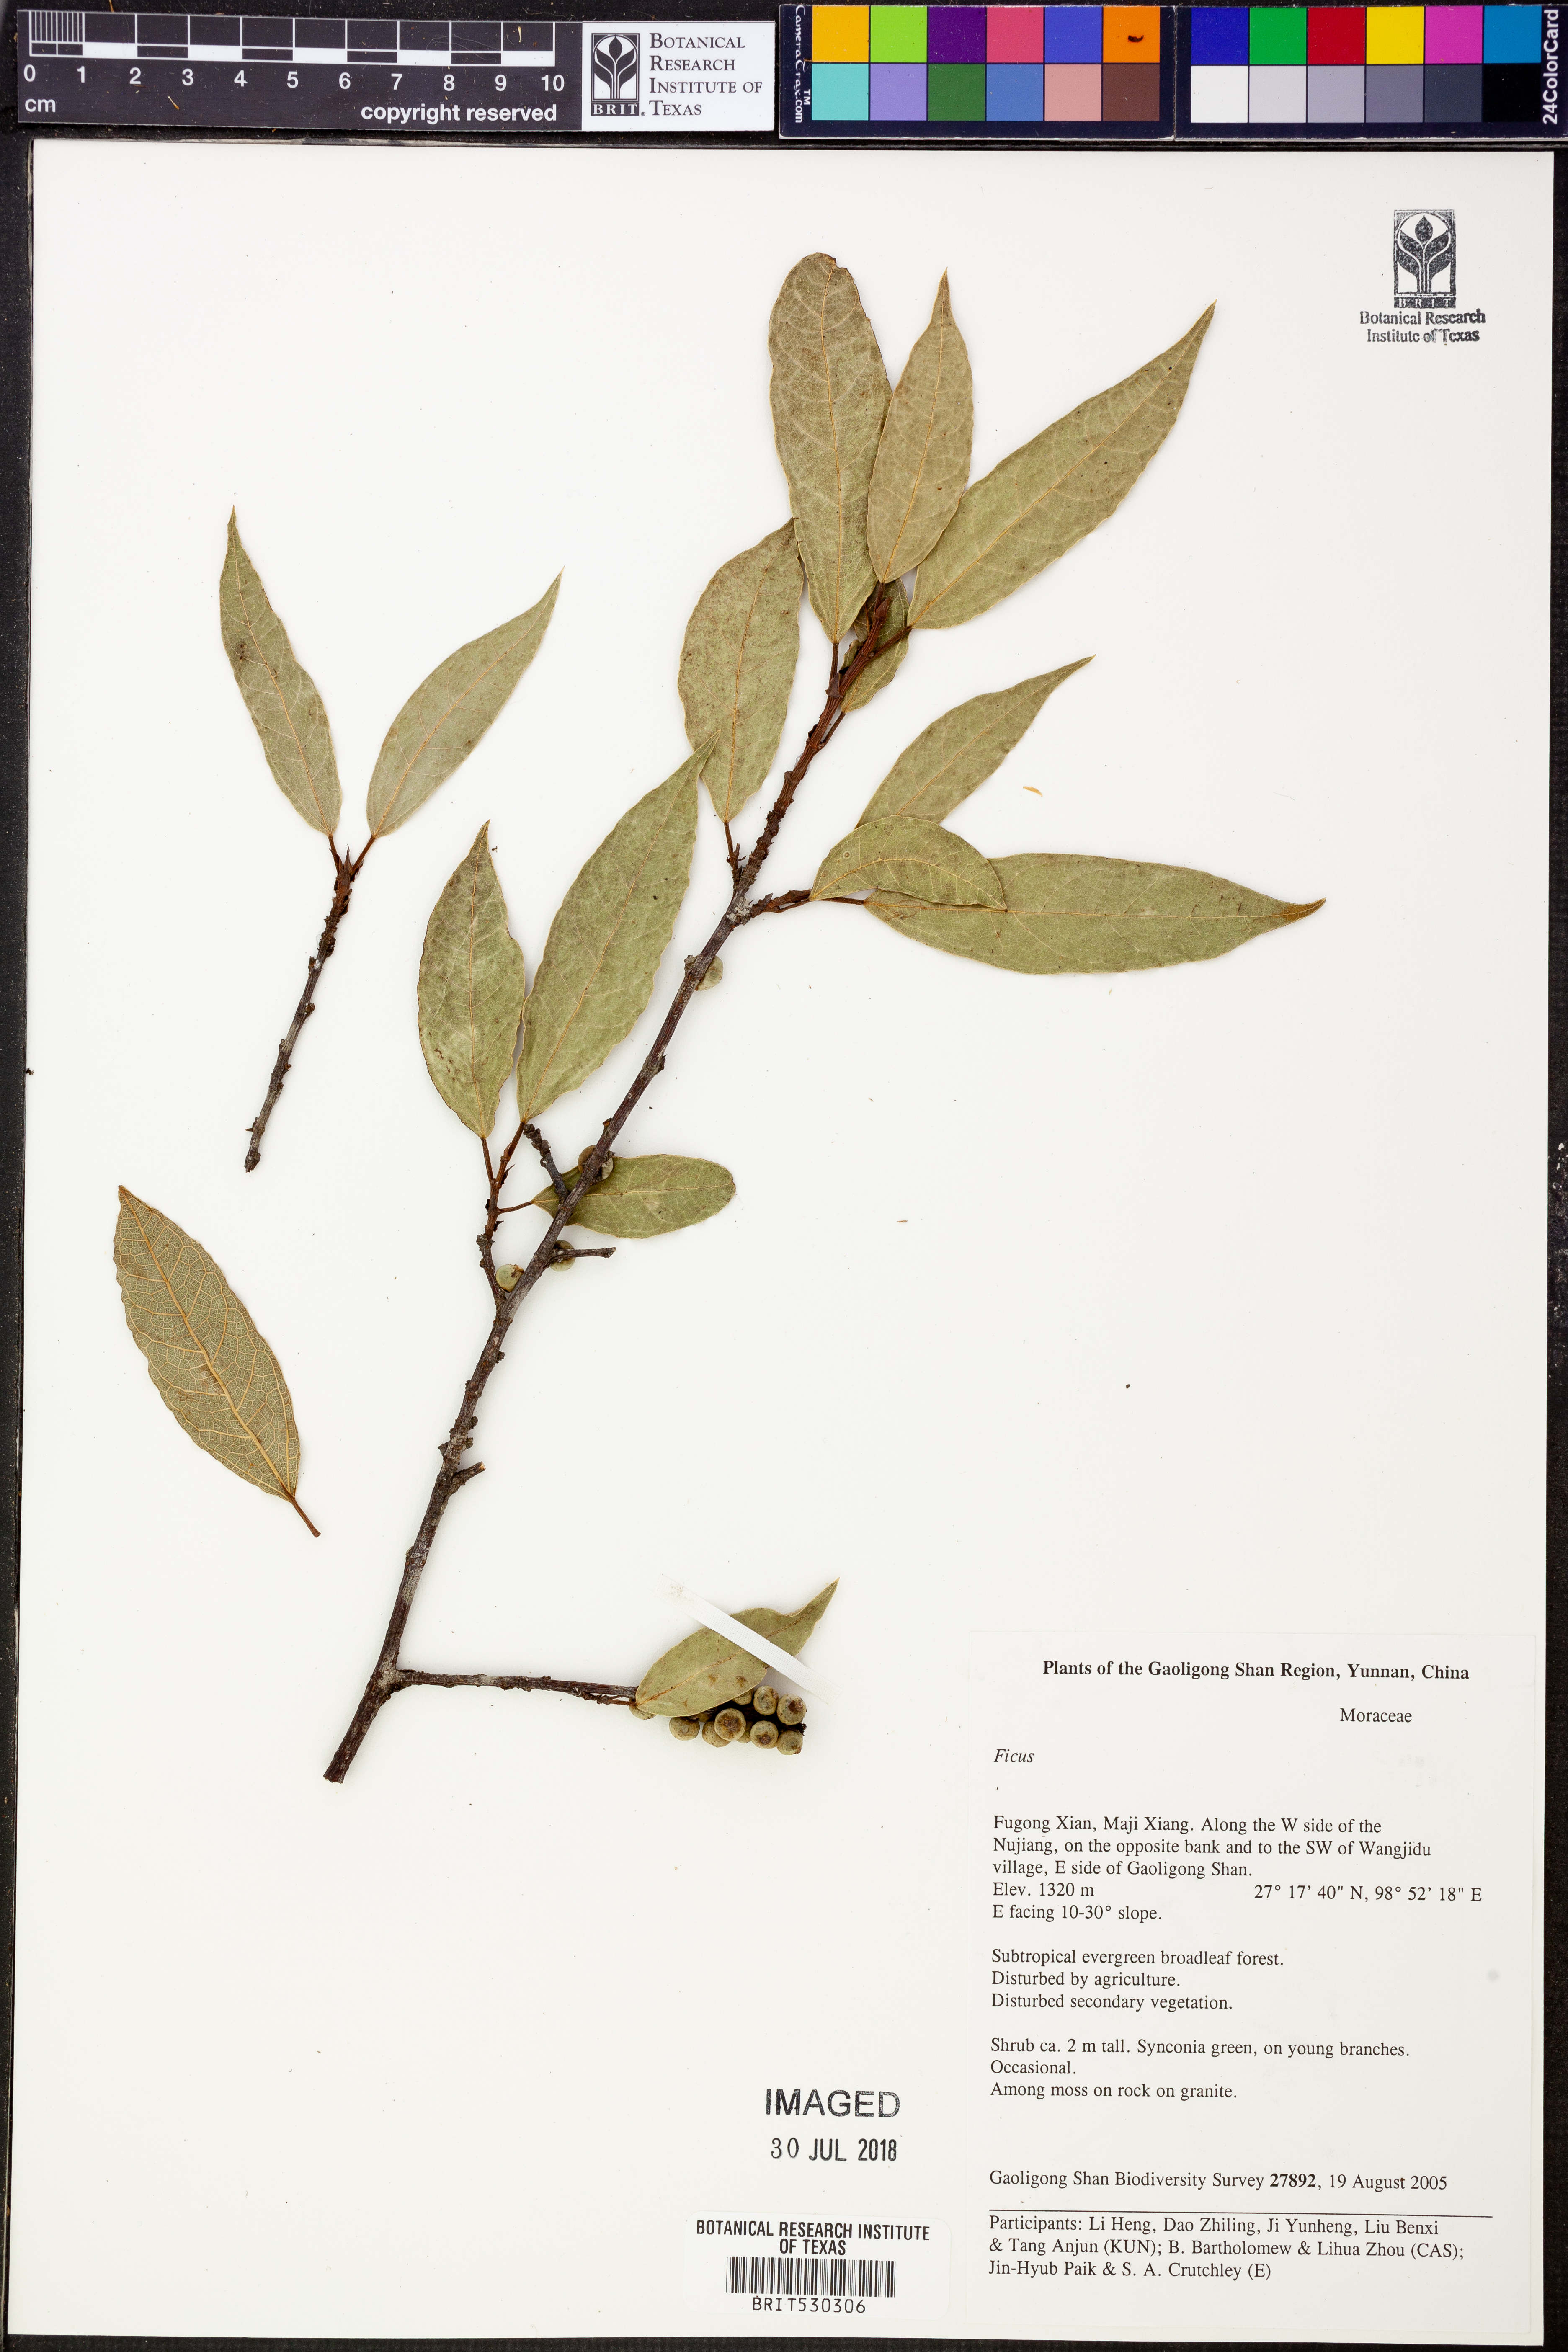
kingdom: Plantae
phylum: Tracheophyta
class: Magnoliopsida
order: Rosales
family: Moraceae
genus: Ficus
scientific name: Ficus
